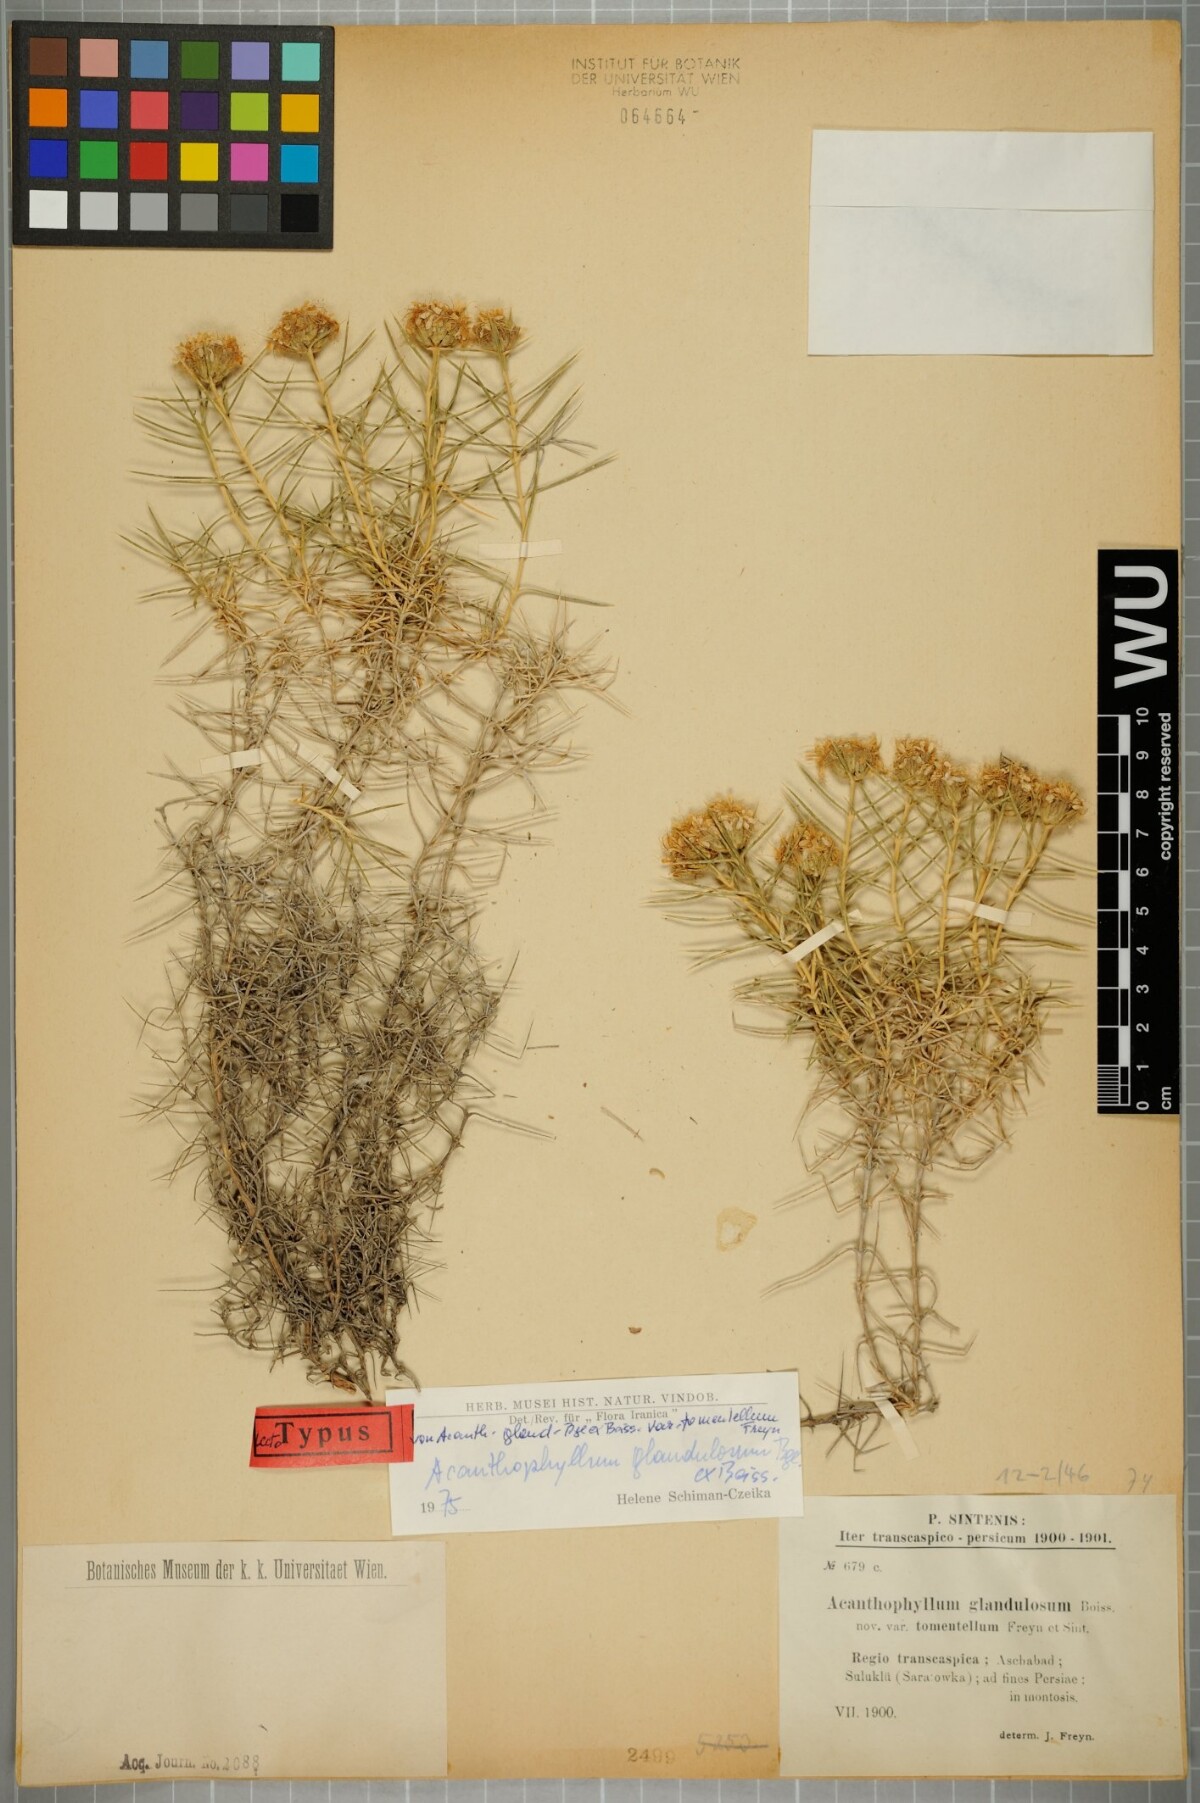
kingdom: Plantae
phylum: Tracheophyta
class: Magnoliopsida
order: Caryophyllales
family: Caryophyllaceae
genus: Acanthophyllum
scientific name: Acanthophyllum glandulosum
